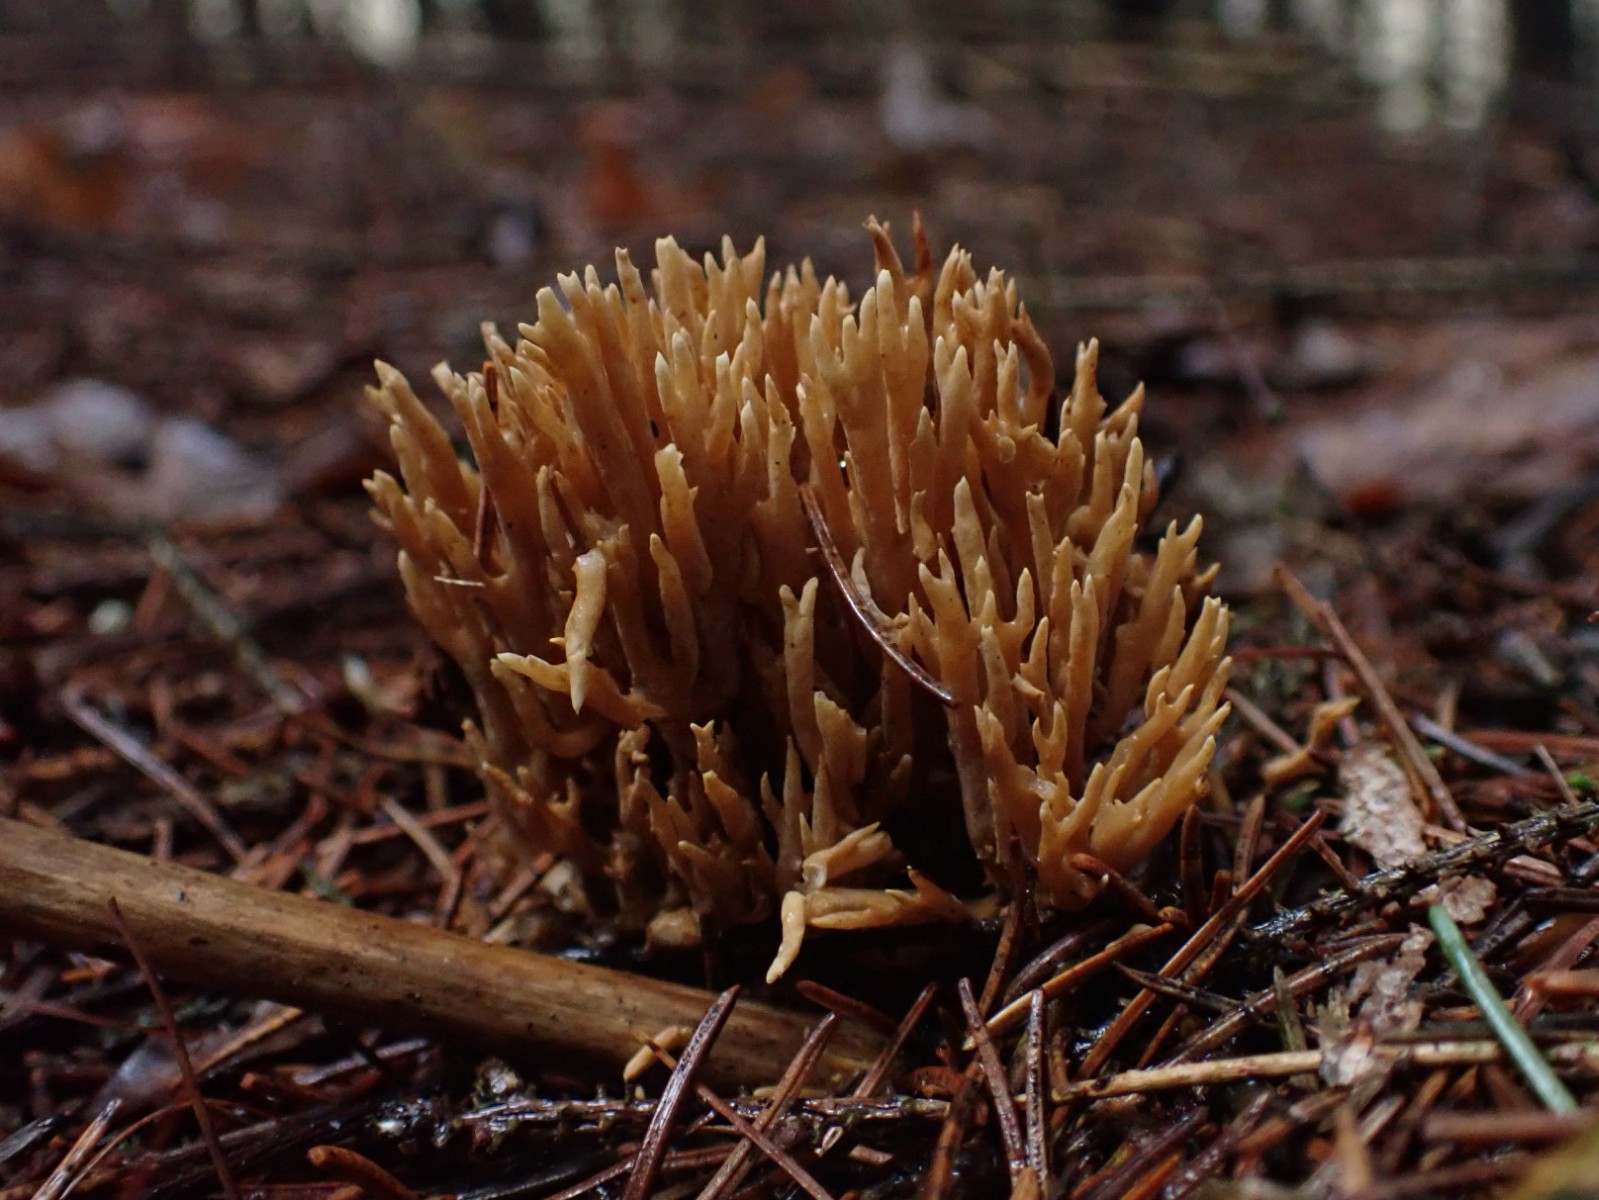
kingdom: Fungi
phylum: Basidiomycota
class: Agaricomycetes
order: Gomphales
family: Gomphaceae
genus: Phaeoclavulina
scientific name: Phaeoclavulina eumorpha
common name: gran-koralsvamp
